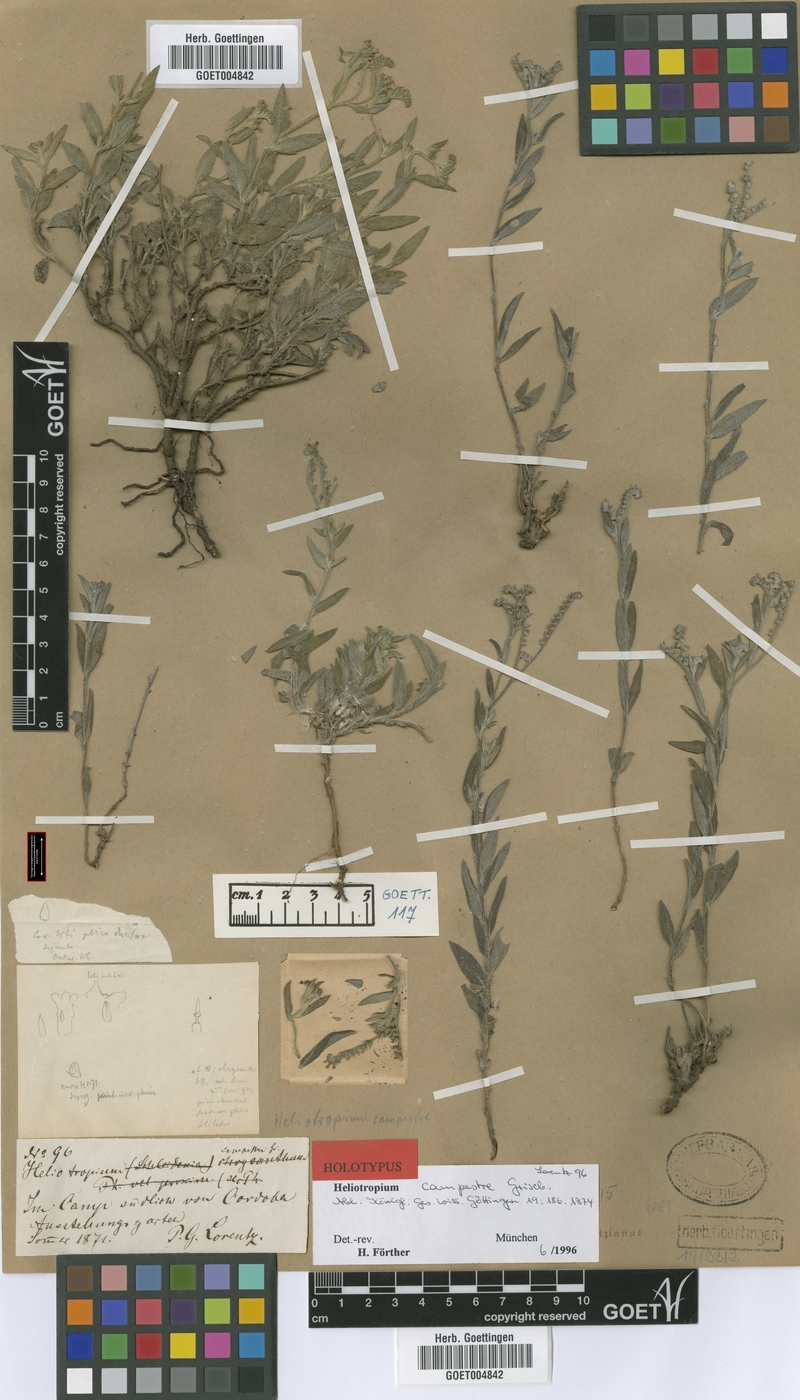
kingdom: Plantae
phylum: Tracheophyta
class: Magnoliopsida
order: Boraginales
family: Heliotropiaceae
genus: Euploca
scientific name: Euploca campestris
